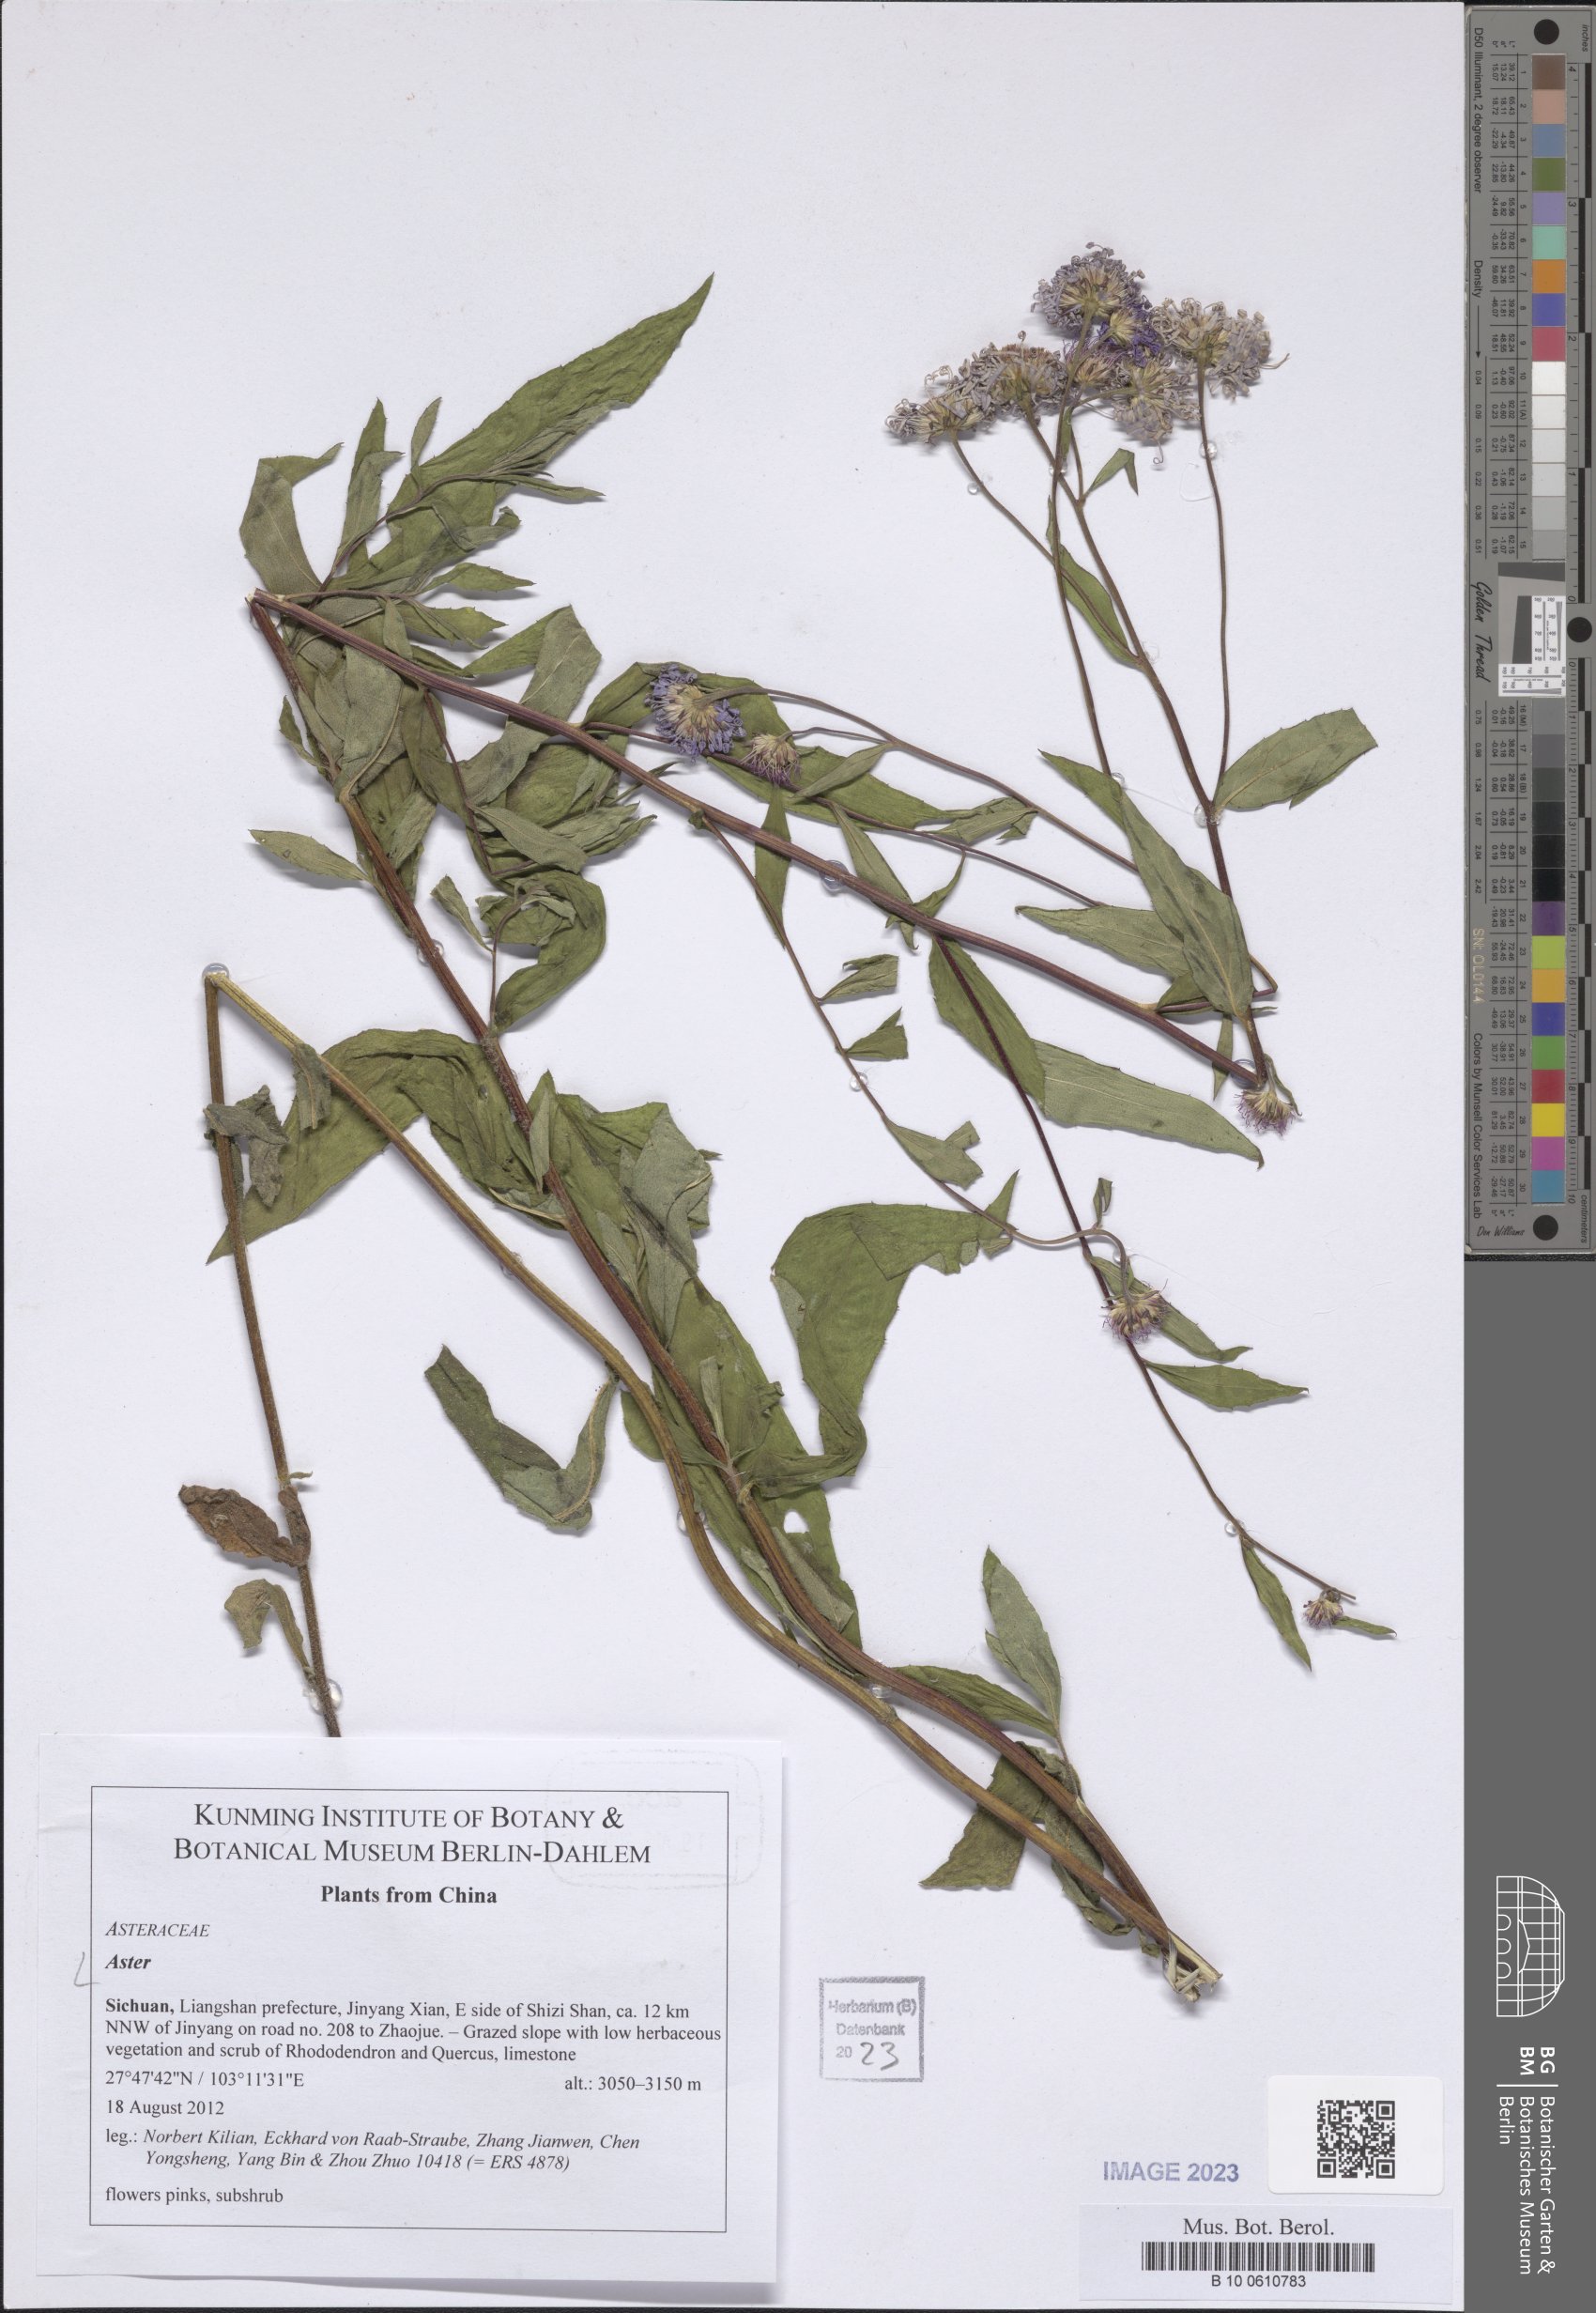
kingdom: Plantae
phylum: Tracheophyta
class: Magnoliopsida
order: Asterales
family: Asteraceae
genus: Aster
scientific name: Aster
